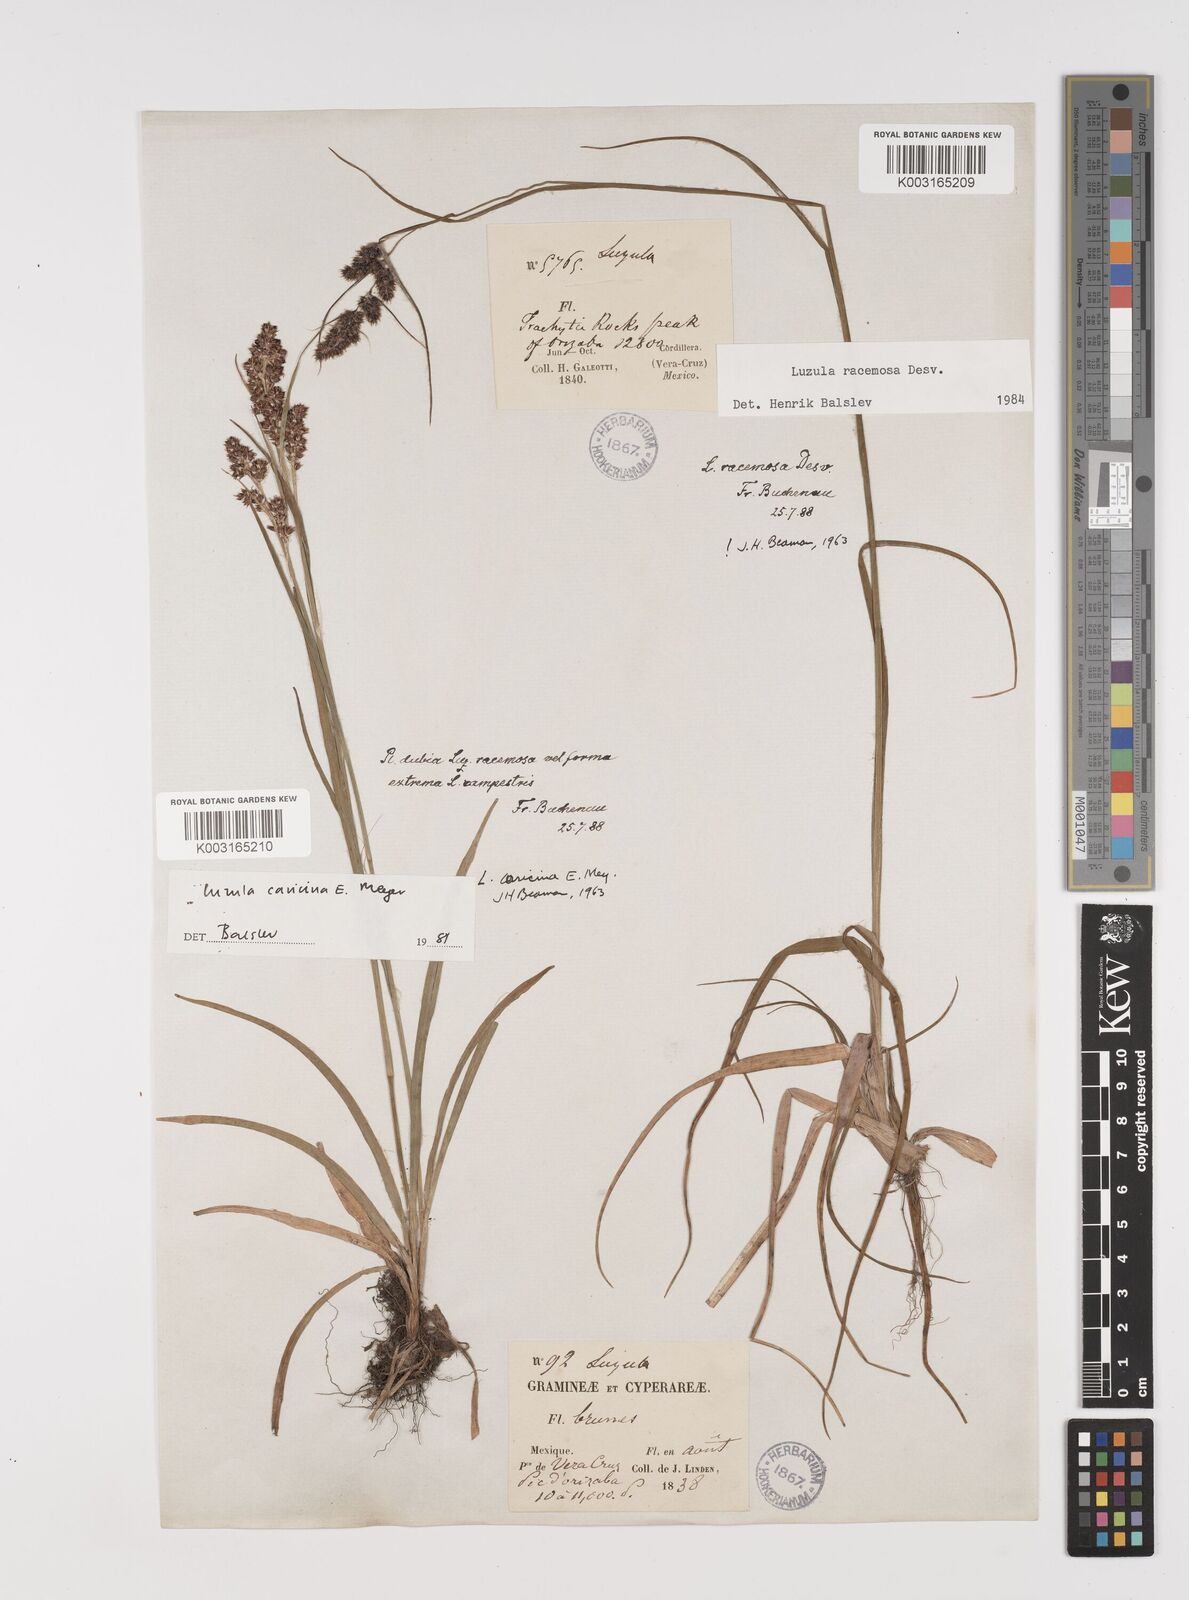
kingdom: Plantae
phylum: Tracheophyta
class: Liliopsida
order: Poales
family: Juncaceae
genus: Luzula
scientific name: Luzula caricina
